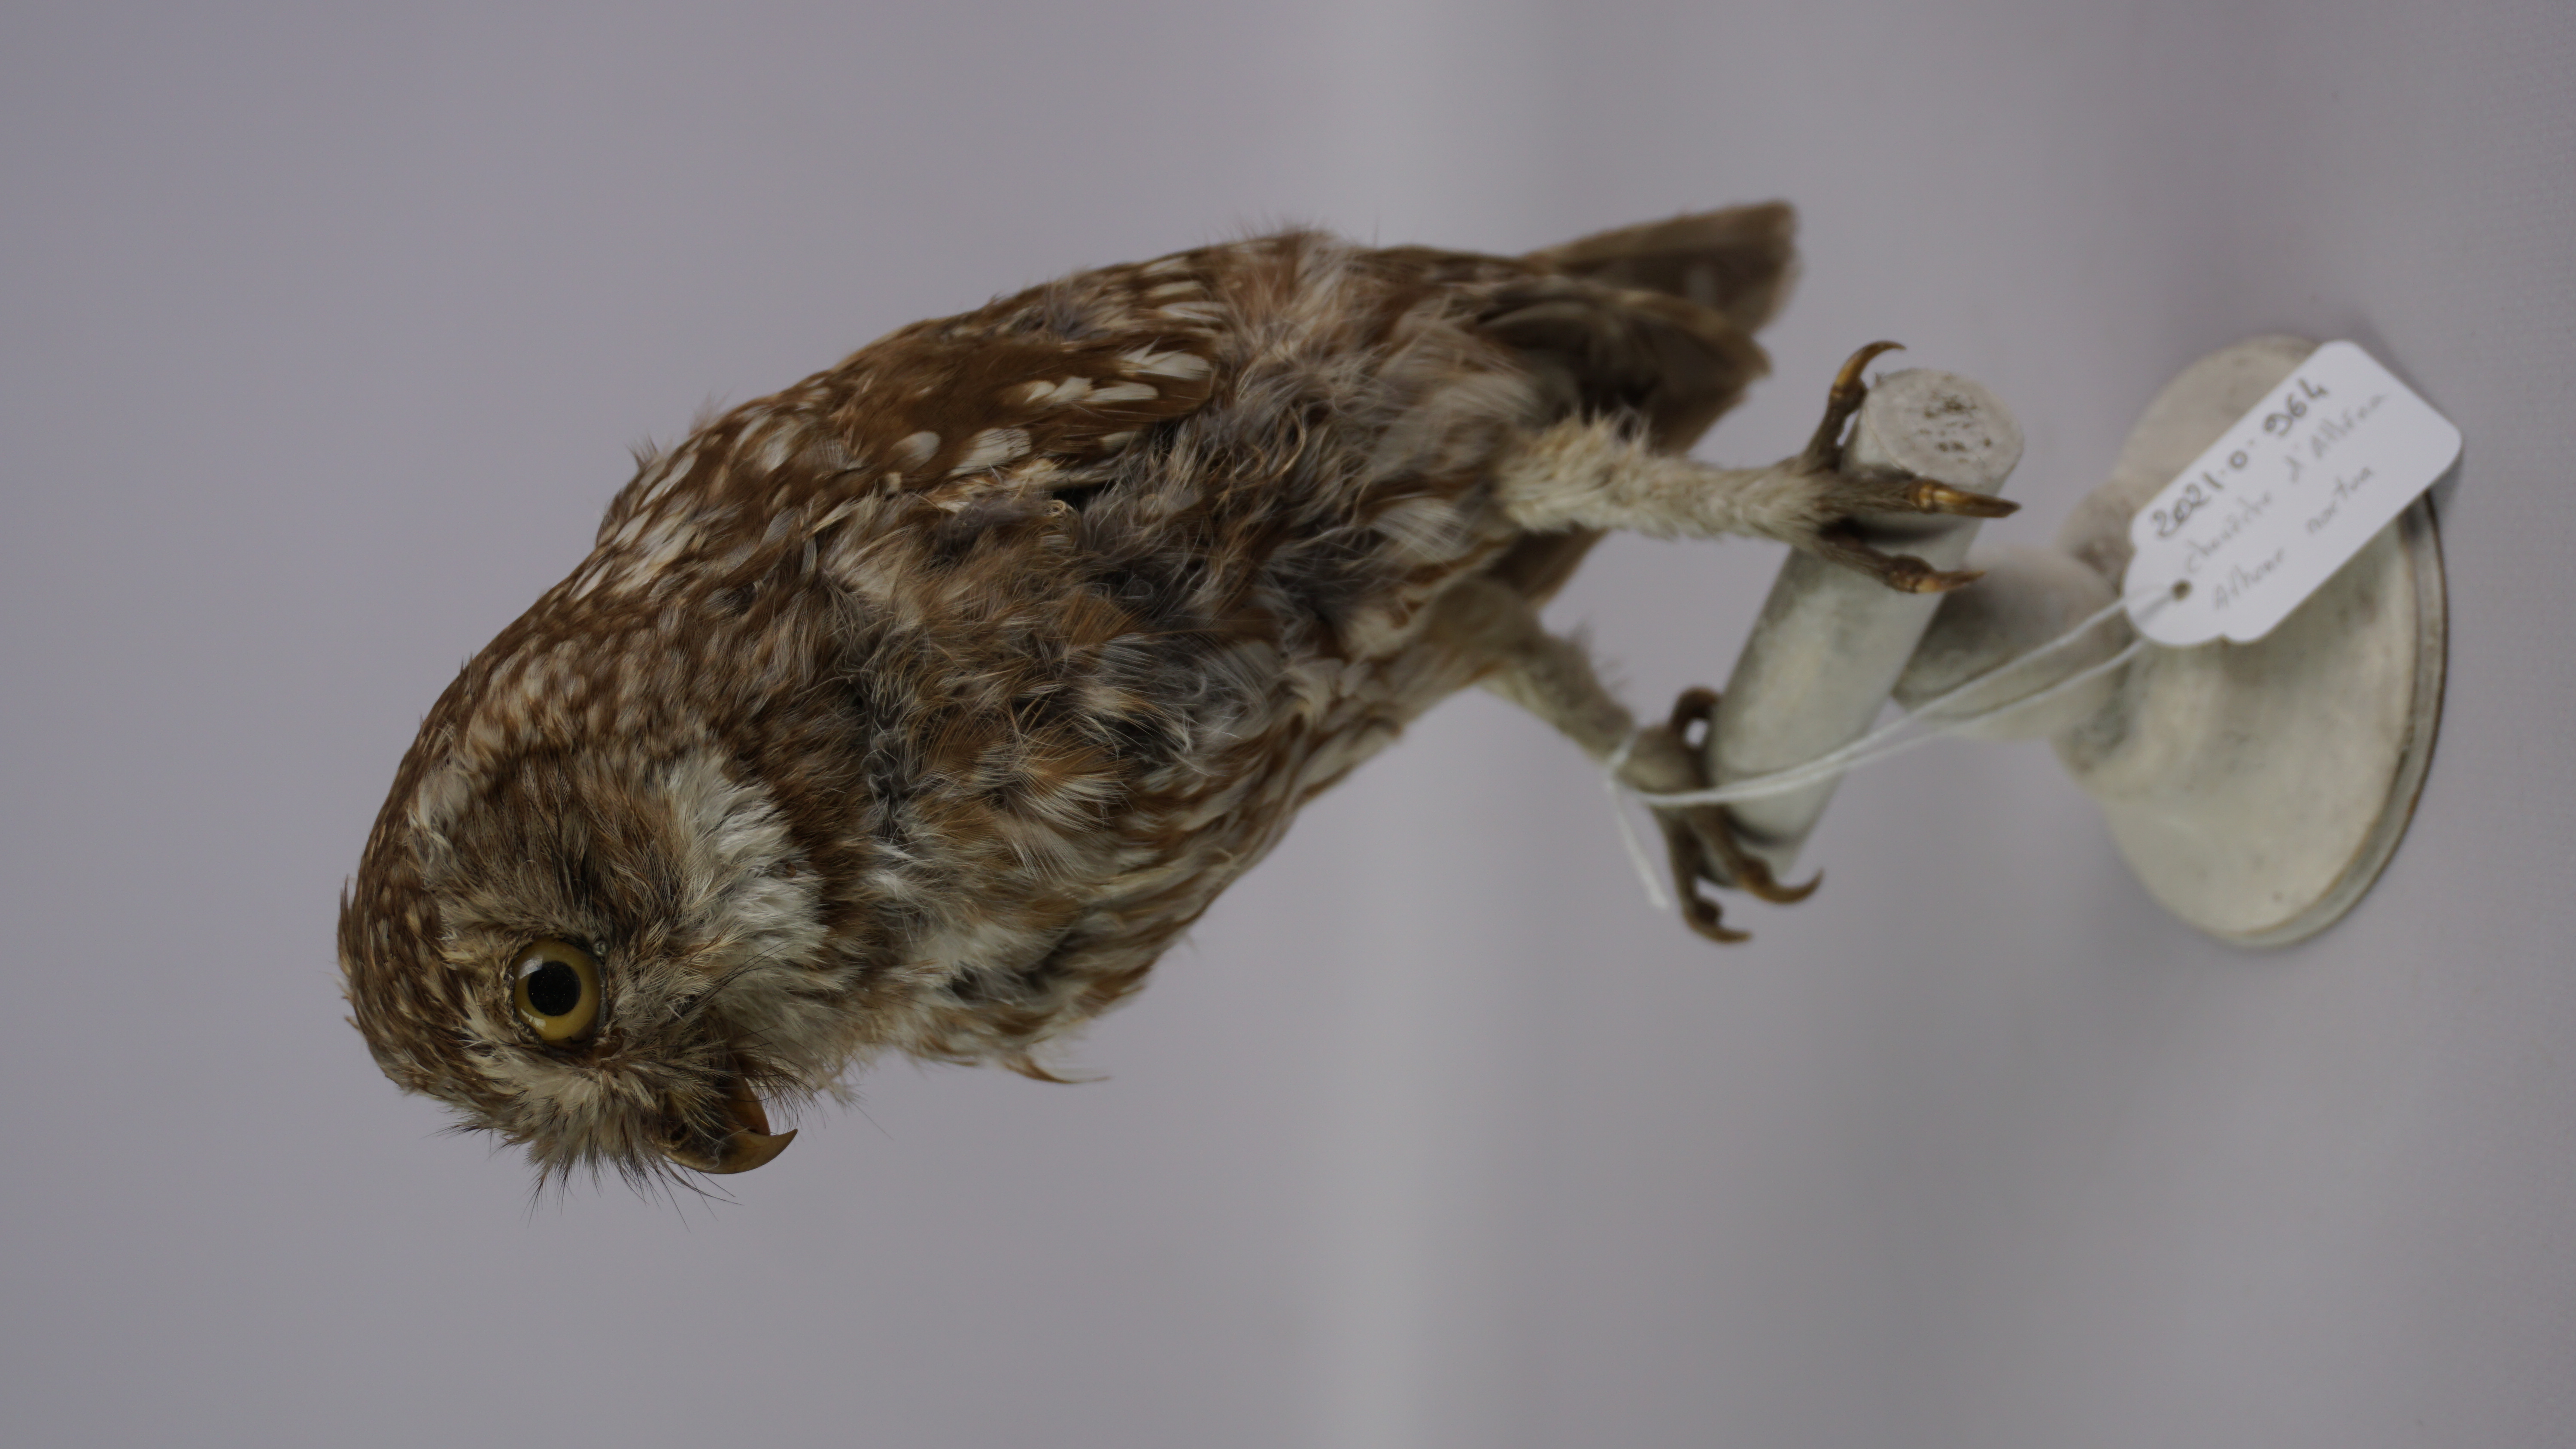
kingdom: Animalia
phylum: Chordata
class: Aves
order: Strigiformes
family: Strigidae
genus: Athene
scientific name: Athene noctua
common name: Little owl
